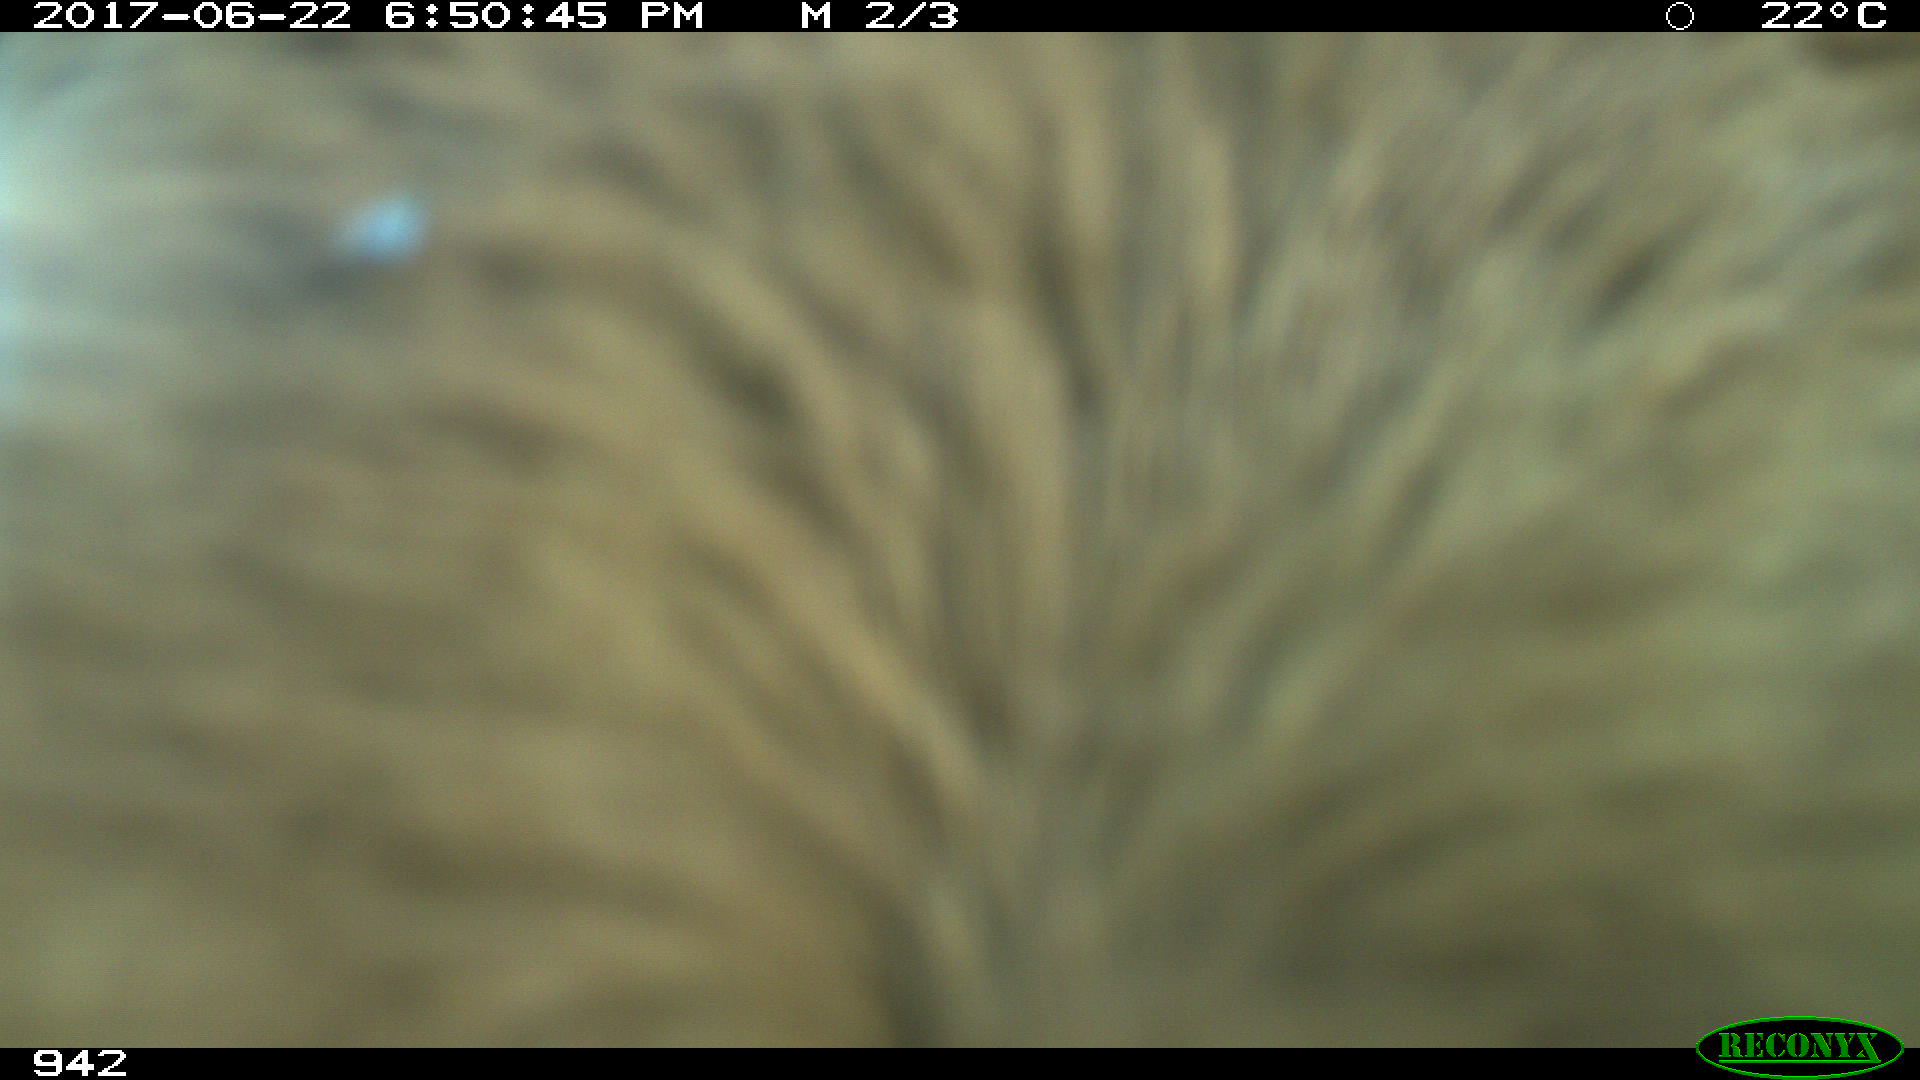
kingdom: Animalia
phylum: Chordata
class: Mammalia
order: Artiodactyla
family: Bovidae
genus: Bos
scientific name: Bos taurus
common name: Domesticated cattle
